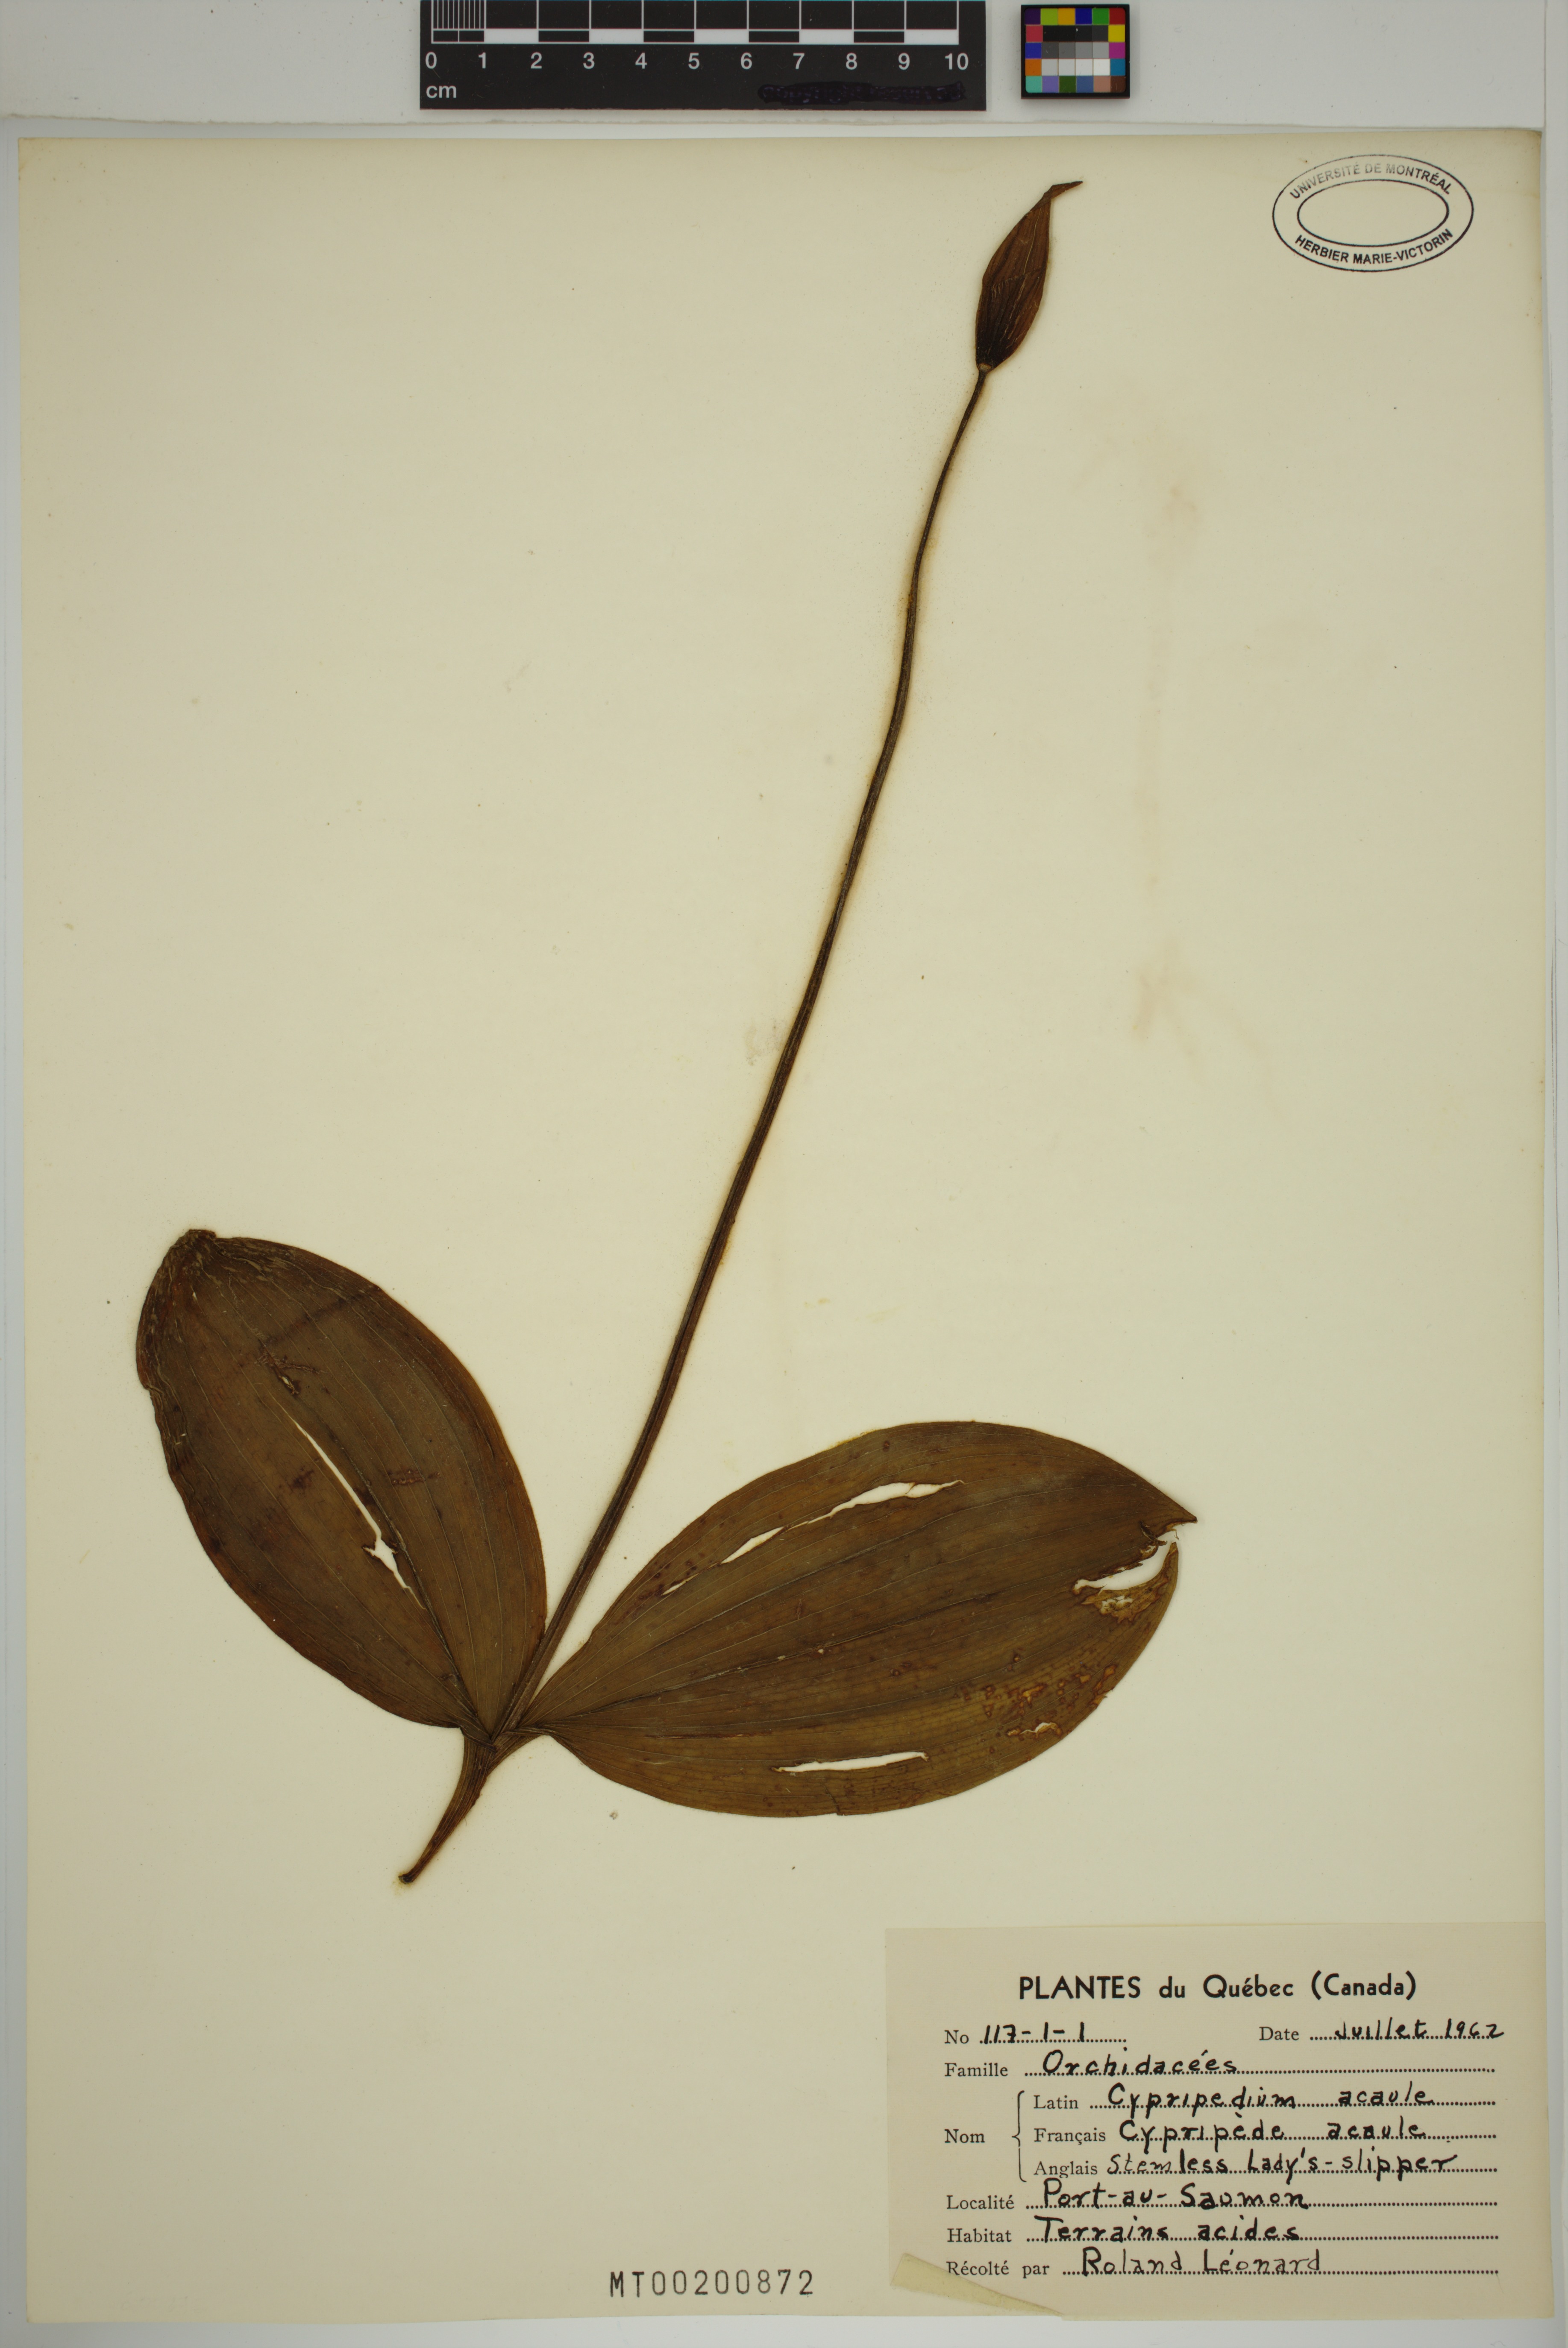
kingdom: Plantae
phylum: Tracheophyta
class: Liliopsida
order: Asparagales
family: Orchidaceae
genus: Cypripedium
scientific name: Cypripedium acaule
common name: Pink lady's-slipper
